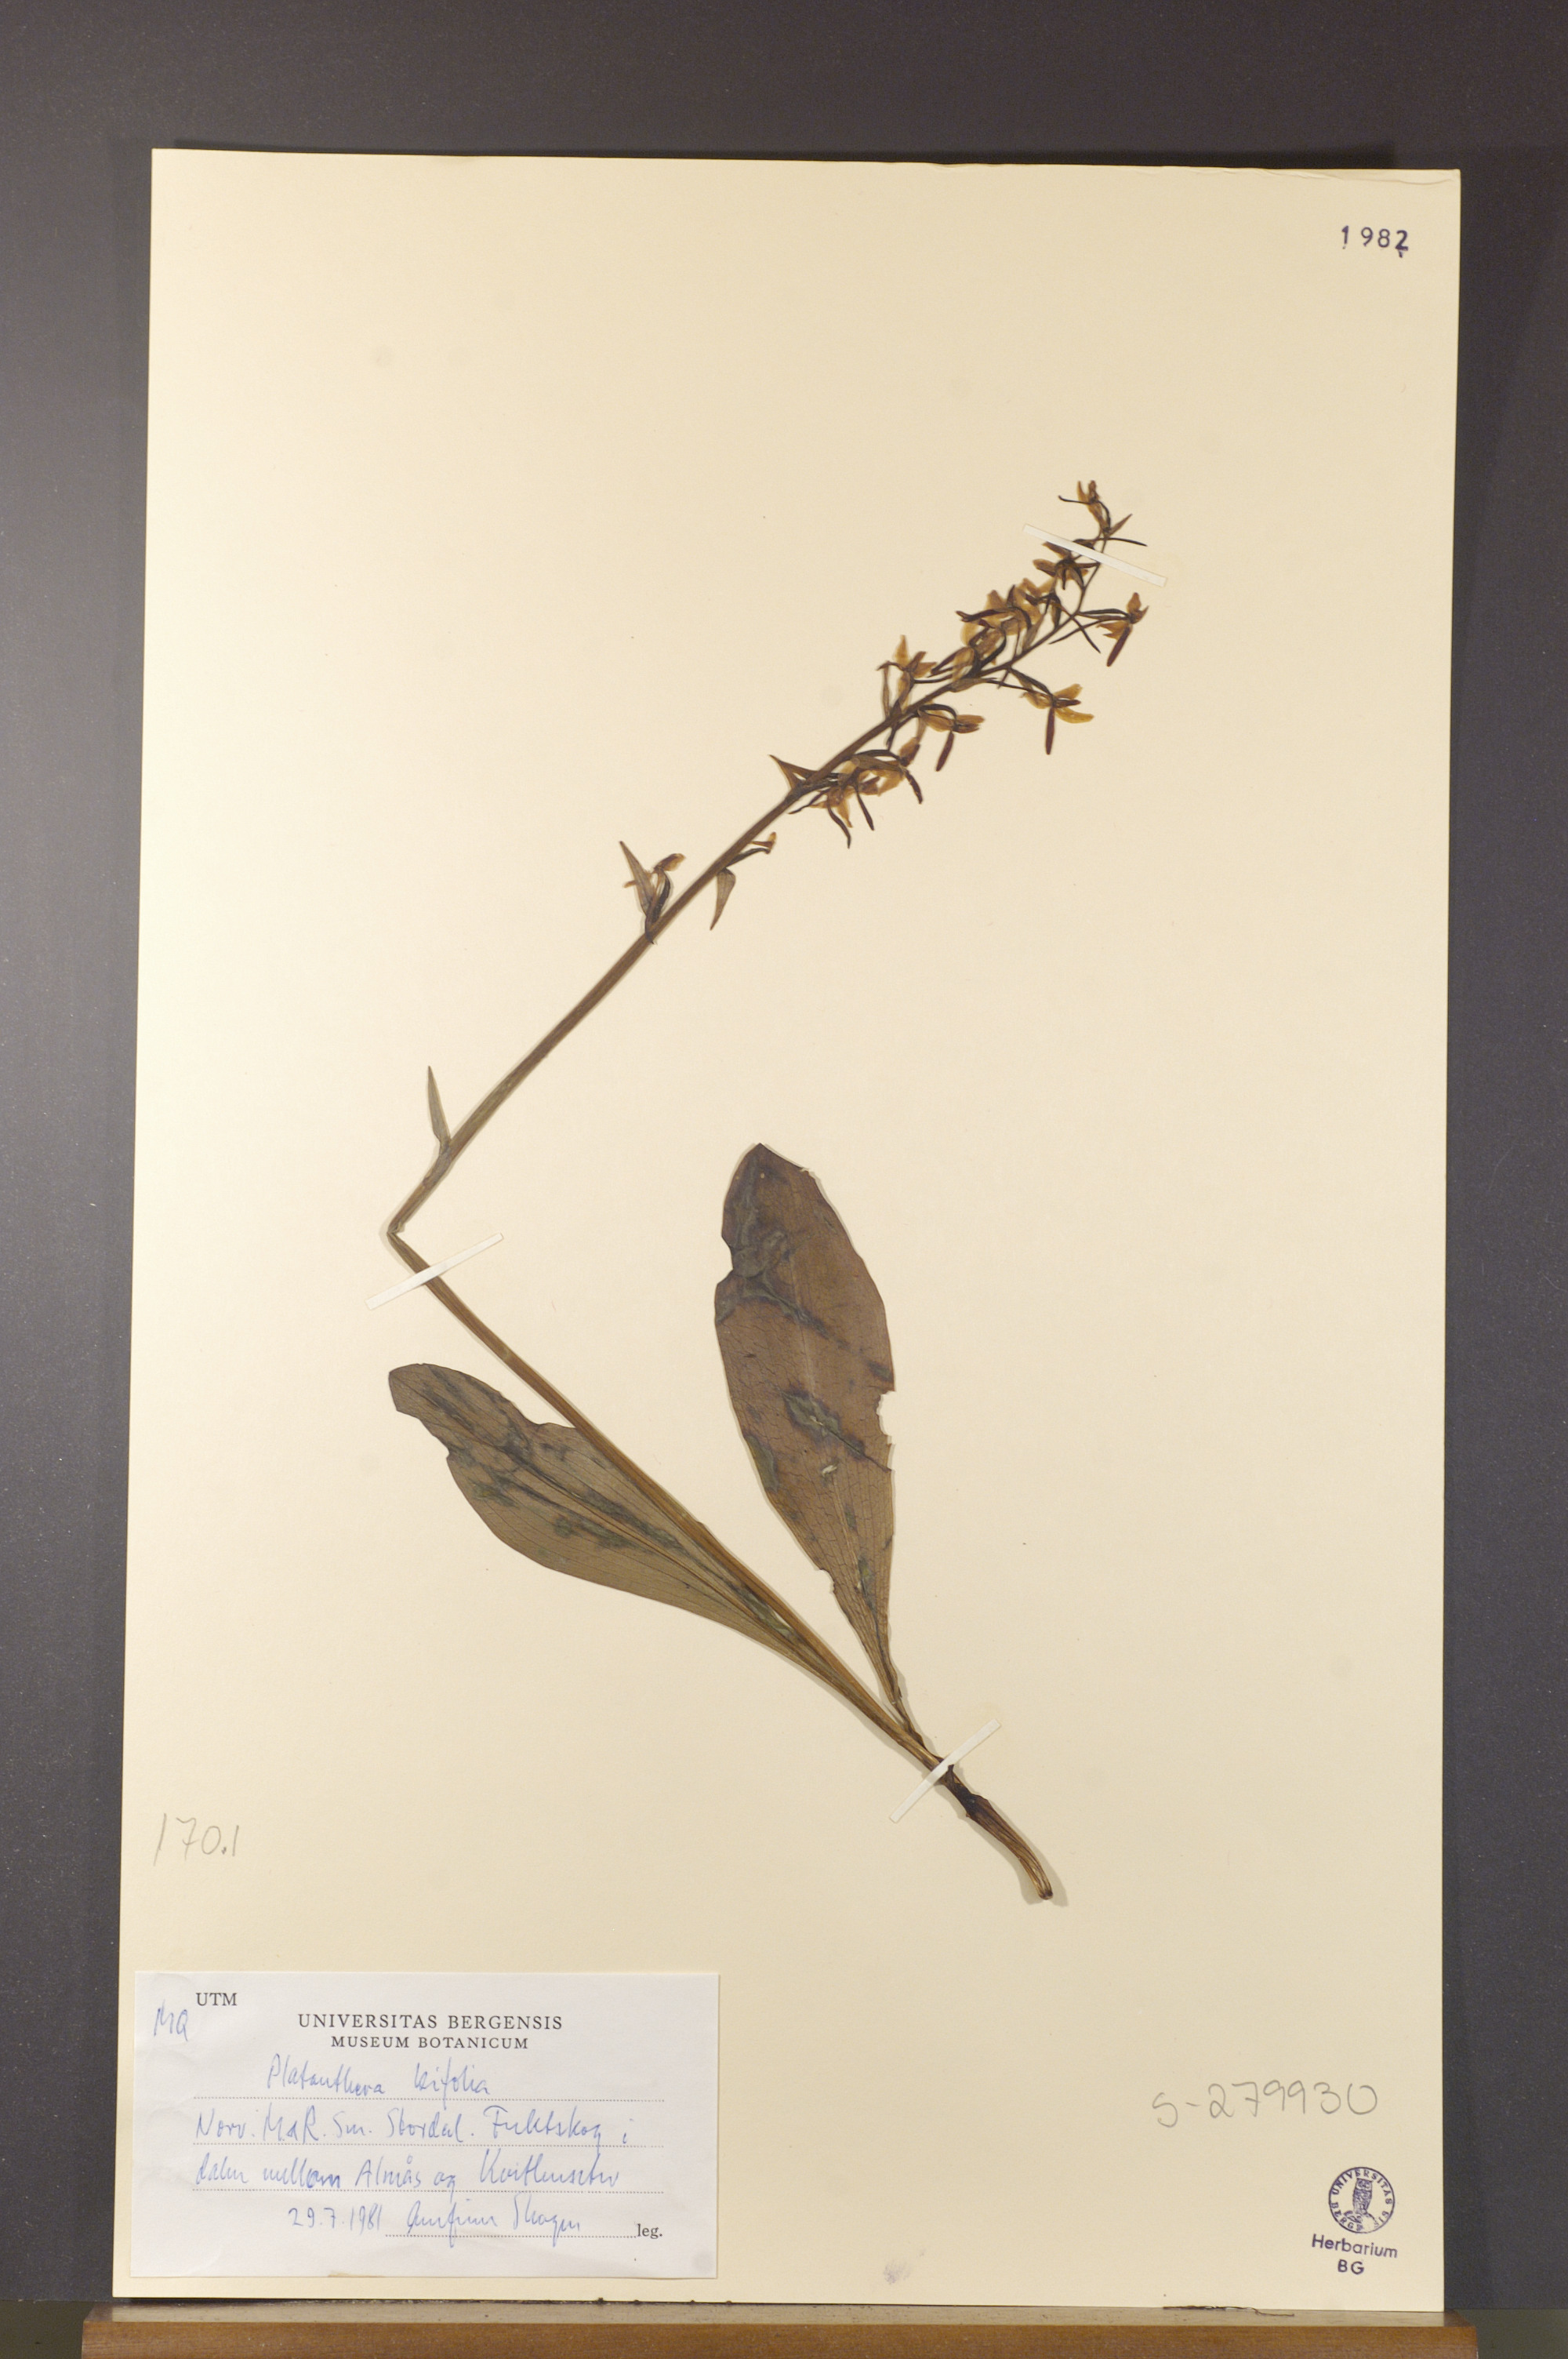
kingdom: Plantae
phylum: Tracheophyta
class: Liliopsida
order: Asparagales
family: Orchidaceae
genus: Platanthera
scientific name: Platanthera bifolia
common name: Lesser butterfly-orchid
